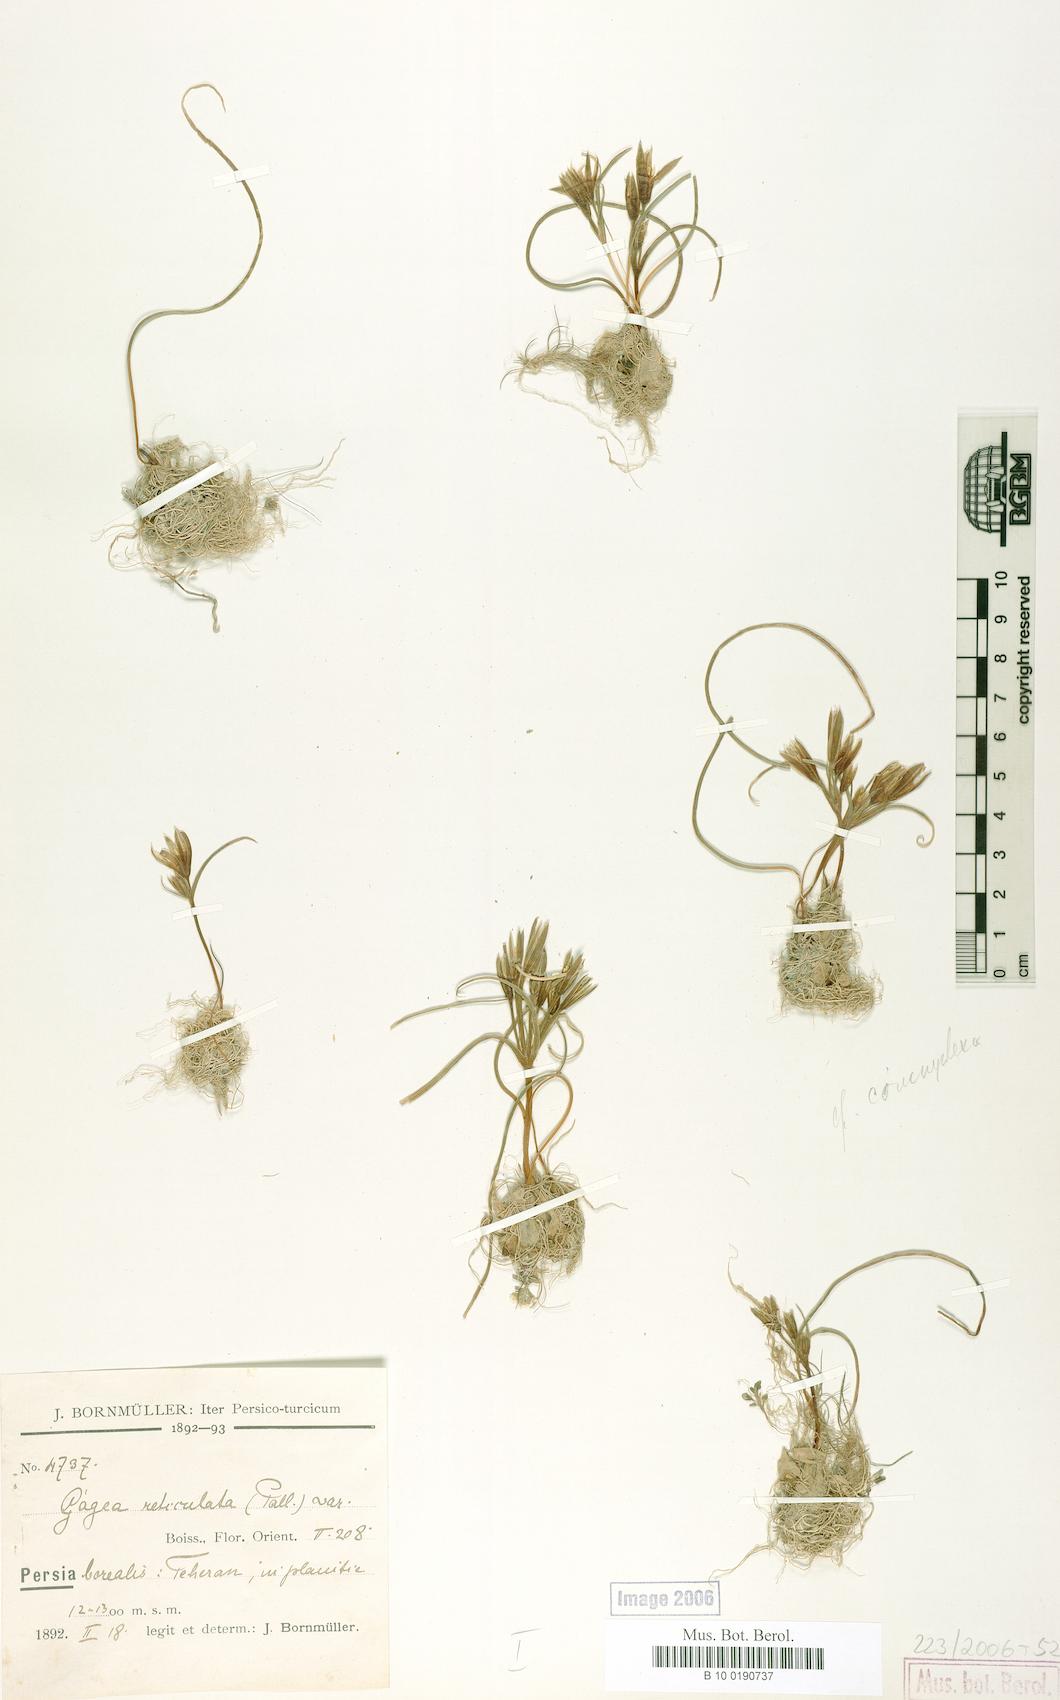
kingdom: Plantae
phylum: Tracheophyta
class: Liliopsida
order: Liliales
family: Liliaceae
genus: Gagea
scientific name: Gagea reticulata
